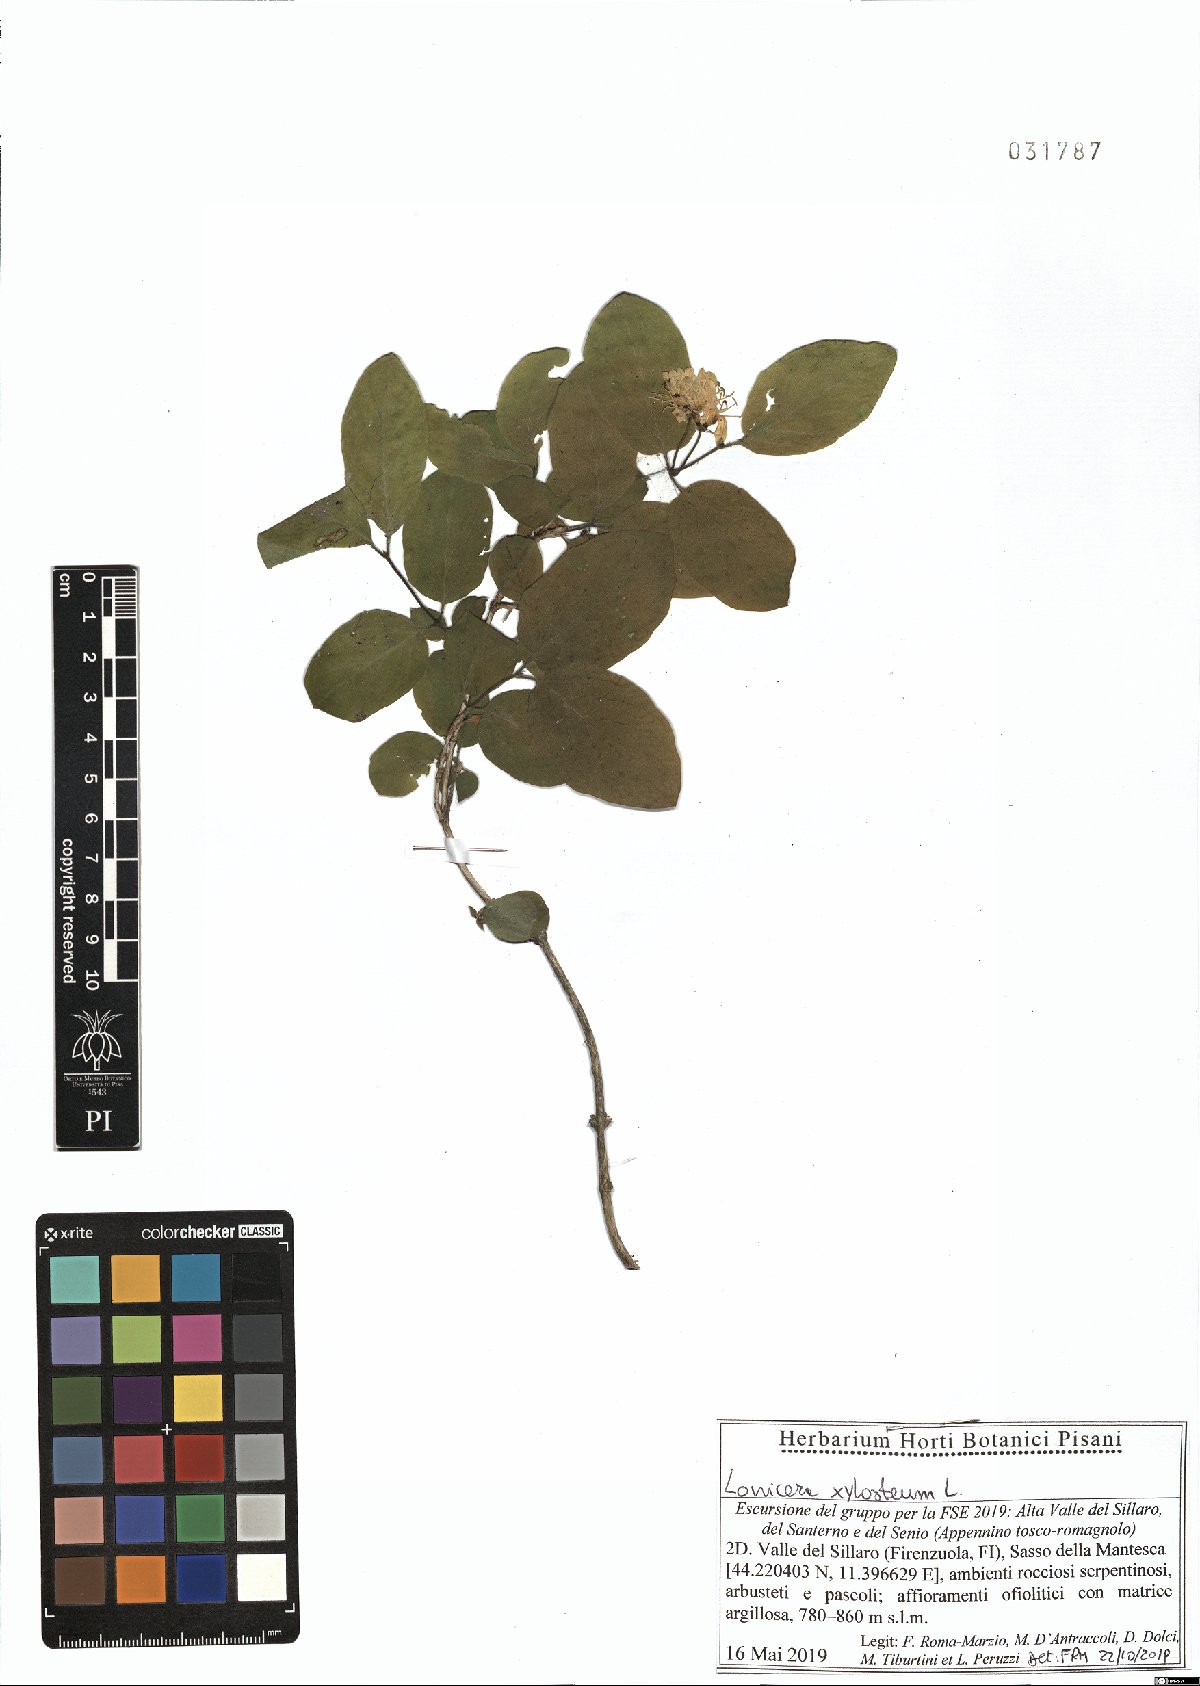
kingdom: Plantae
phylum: Tracheophyta
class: Magnoliopsida
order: Dipsacales
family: Caprifoliaceae
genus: Lonicera
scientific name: Lonicera xylosteum
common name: Fly honeysuckle
